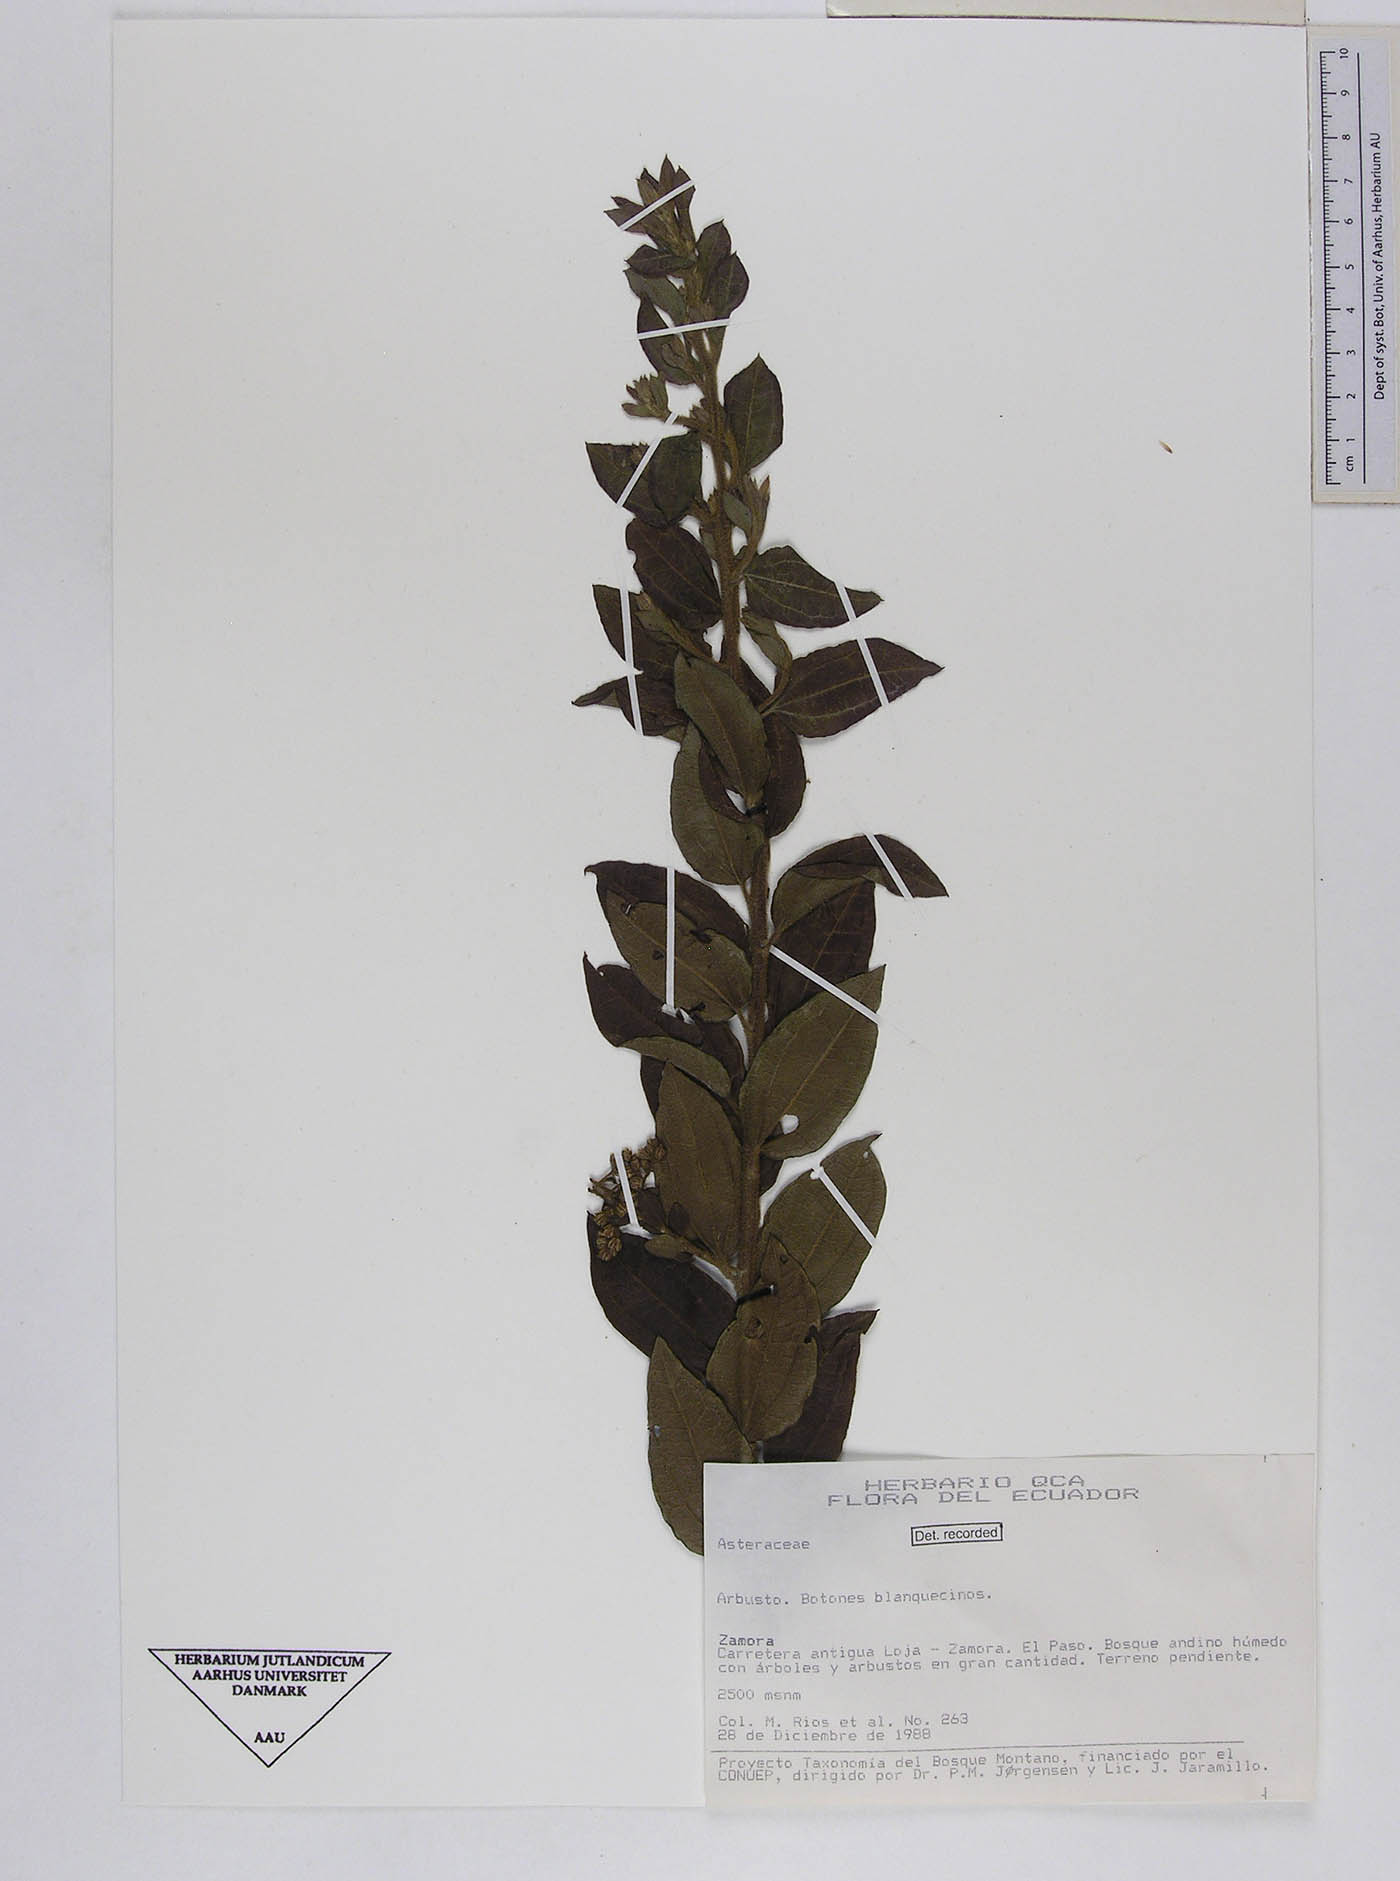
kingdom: Plantae
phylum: Tracheophyta
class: Magnoliopsida
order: Asterales
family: Asteraceae
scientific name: Asteraceae
